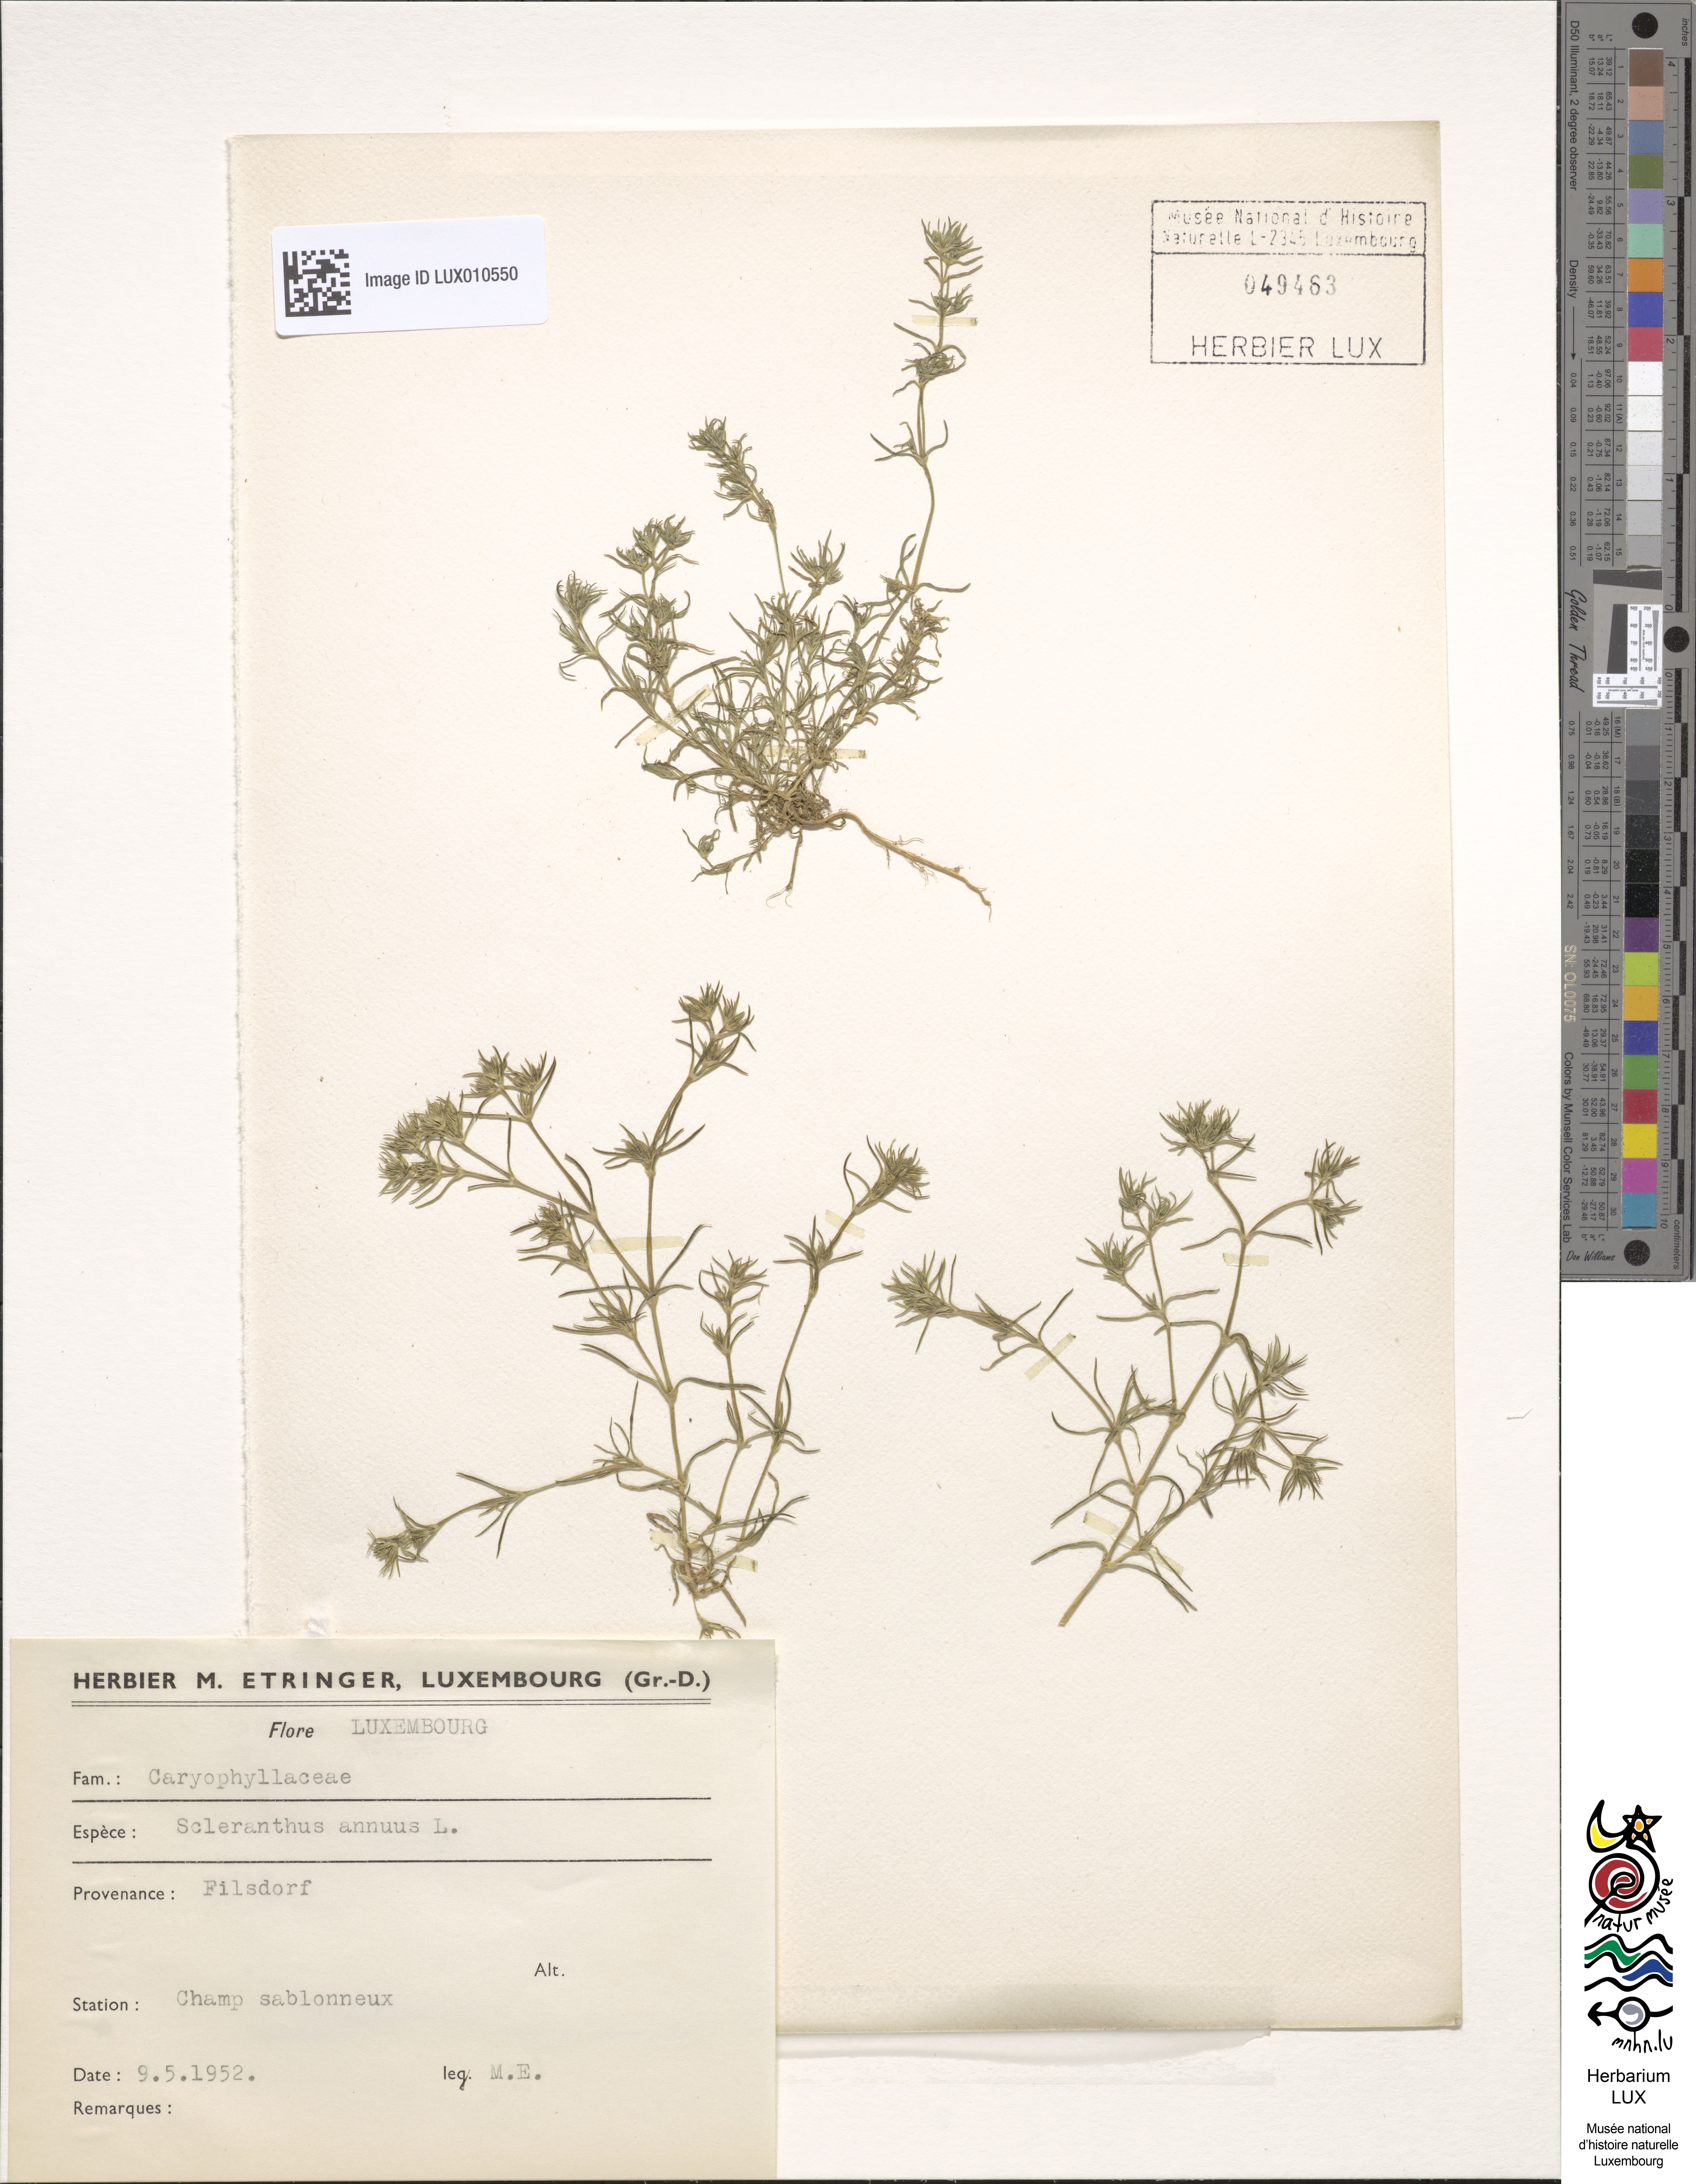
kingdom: Plantae
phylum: Tracheophyta
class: Magnoliopsida
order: Caryophyllales
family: Caryophyllaceae
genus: Scleranthus
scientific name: Scleranthus annuus
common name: Annual knawel
